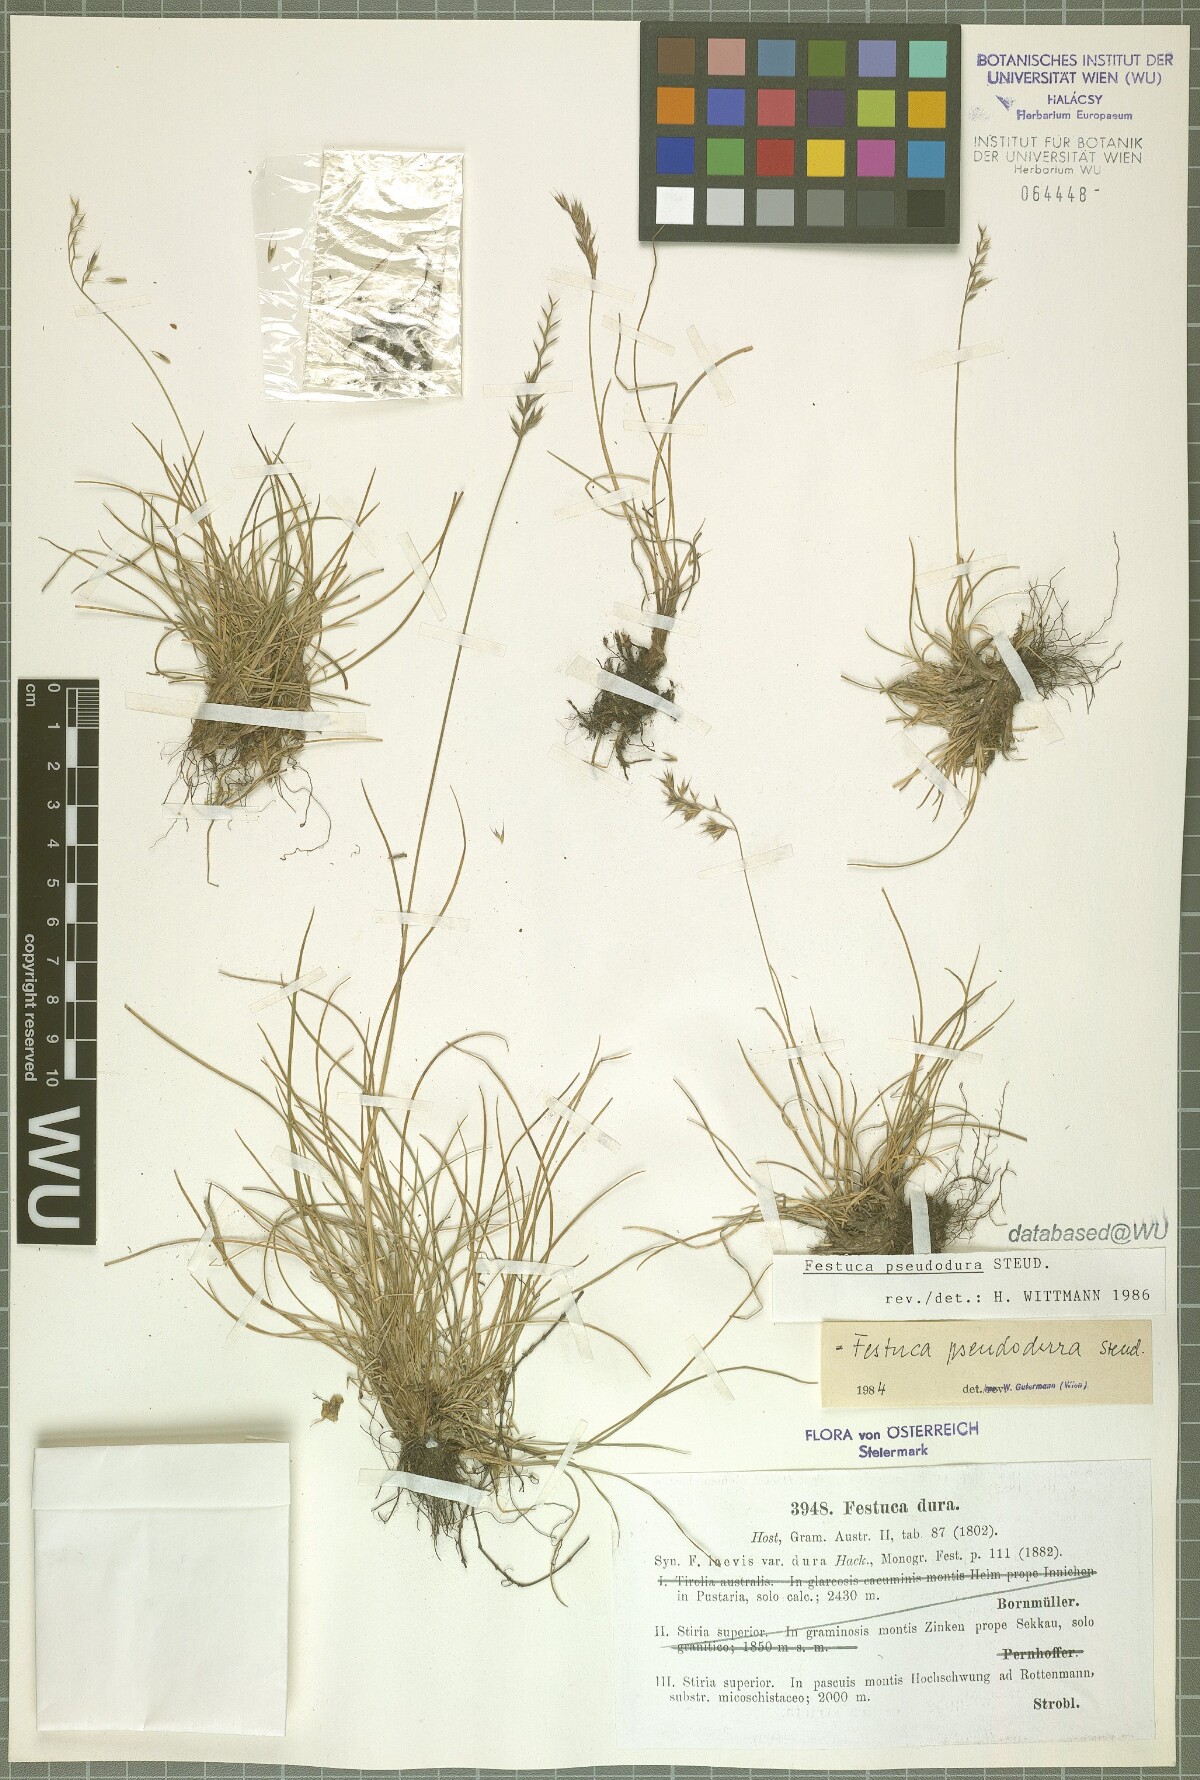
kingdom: Plantae
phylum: Tracheophyta
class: Liliopsida
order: Poales
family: Poaceae
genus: Festuca
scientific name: Festuca pseudodura
